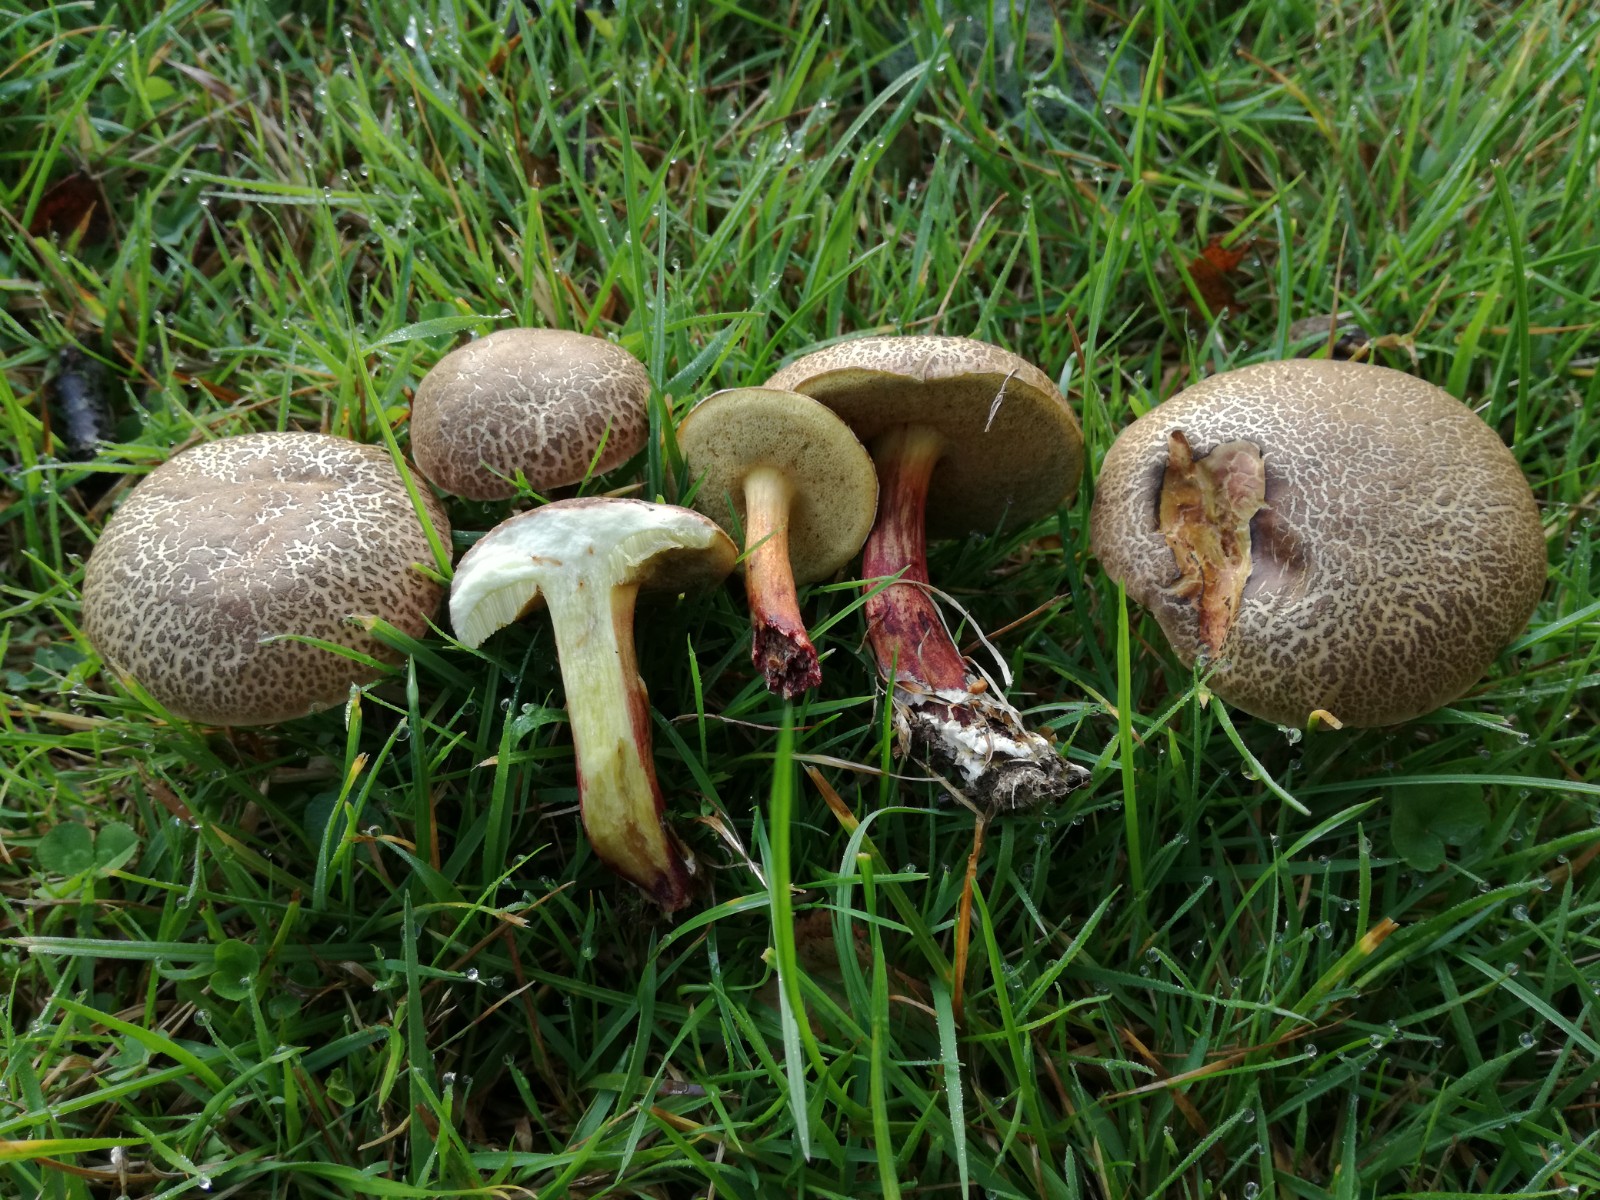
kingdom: Fungi
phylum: Basidiomycota
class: Agaricomycetes
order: Boletales
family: Boletaceae
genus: Xerocomellus
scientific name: Xerocomellus chrysenteron
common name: rødsprukken rørhat
